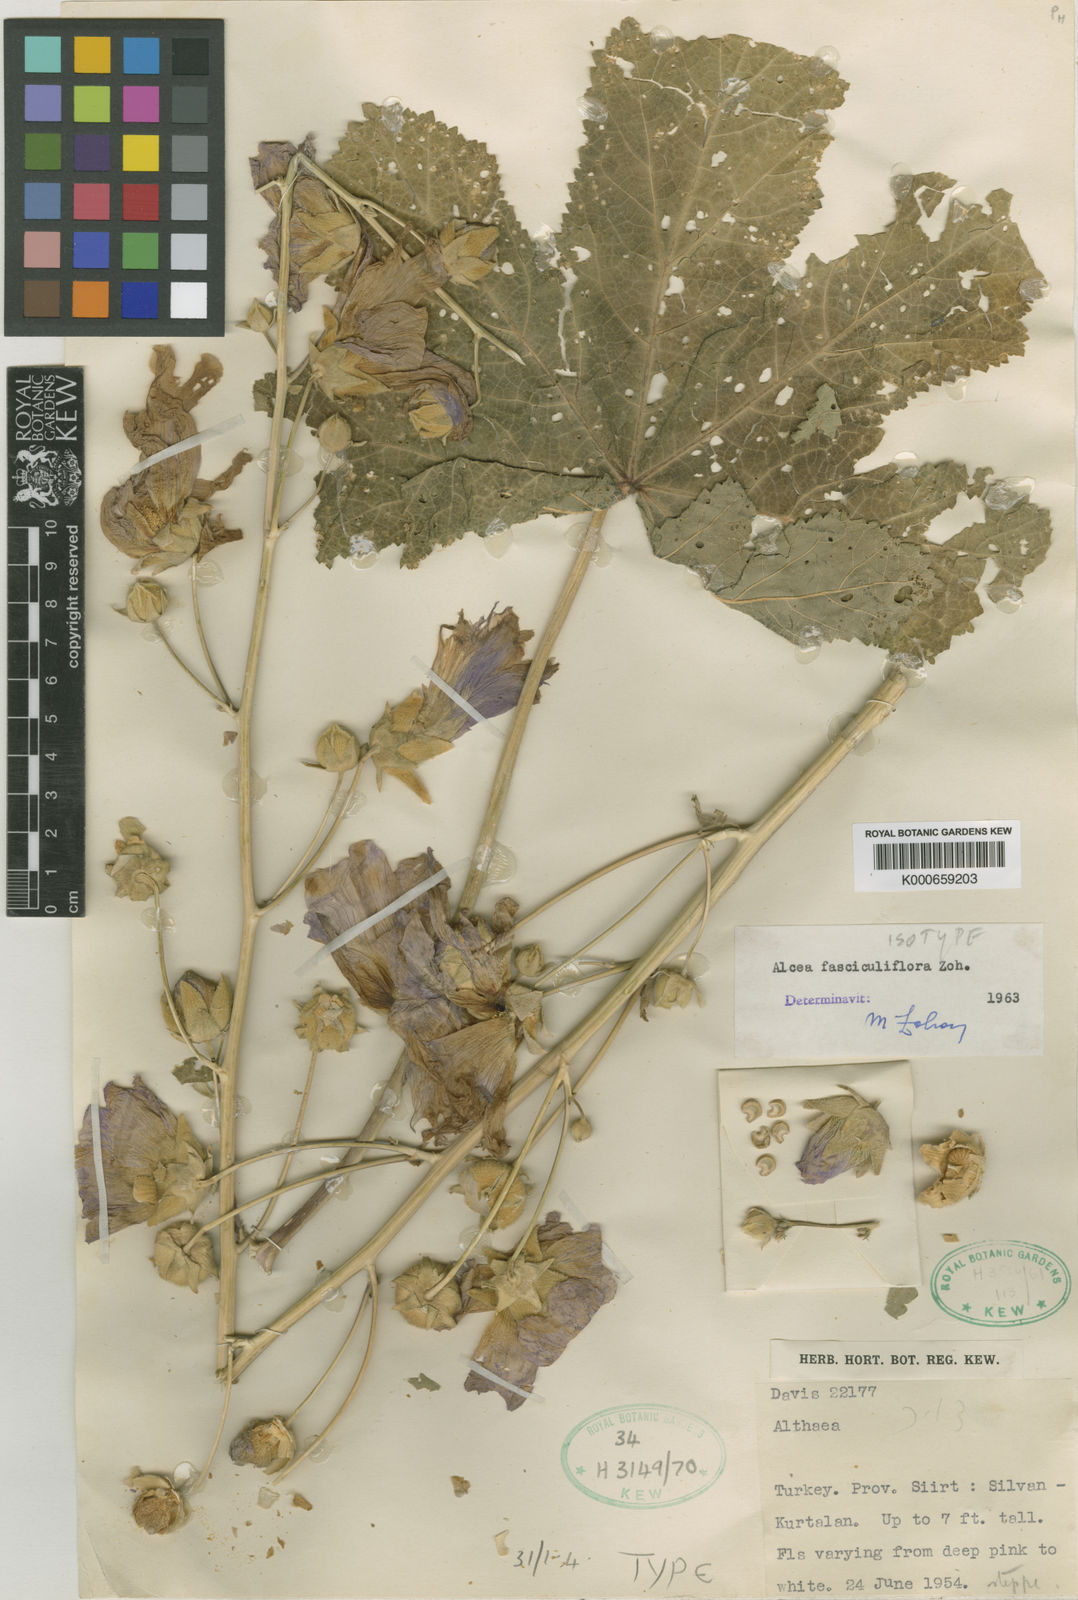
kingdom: Plantae
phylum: Tracheophyta
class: Magnoliopsida
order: Malvales
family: Malvaceae
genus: Alcea
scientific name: Alcea fasciculiflora
